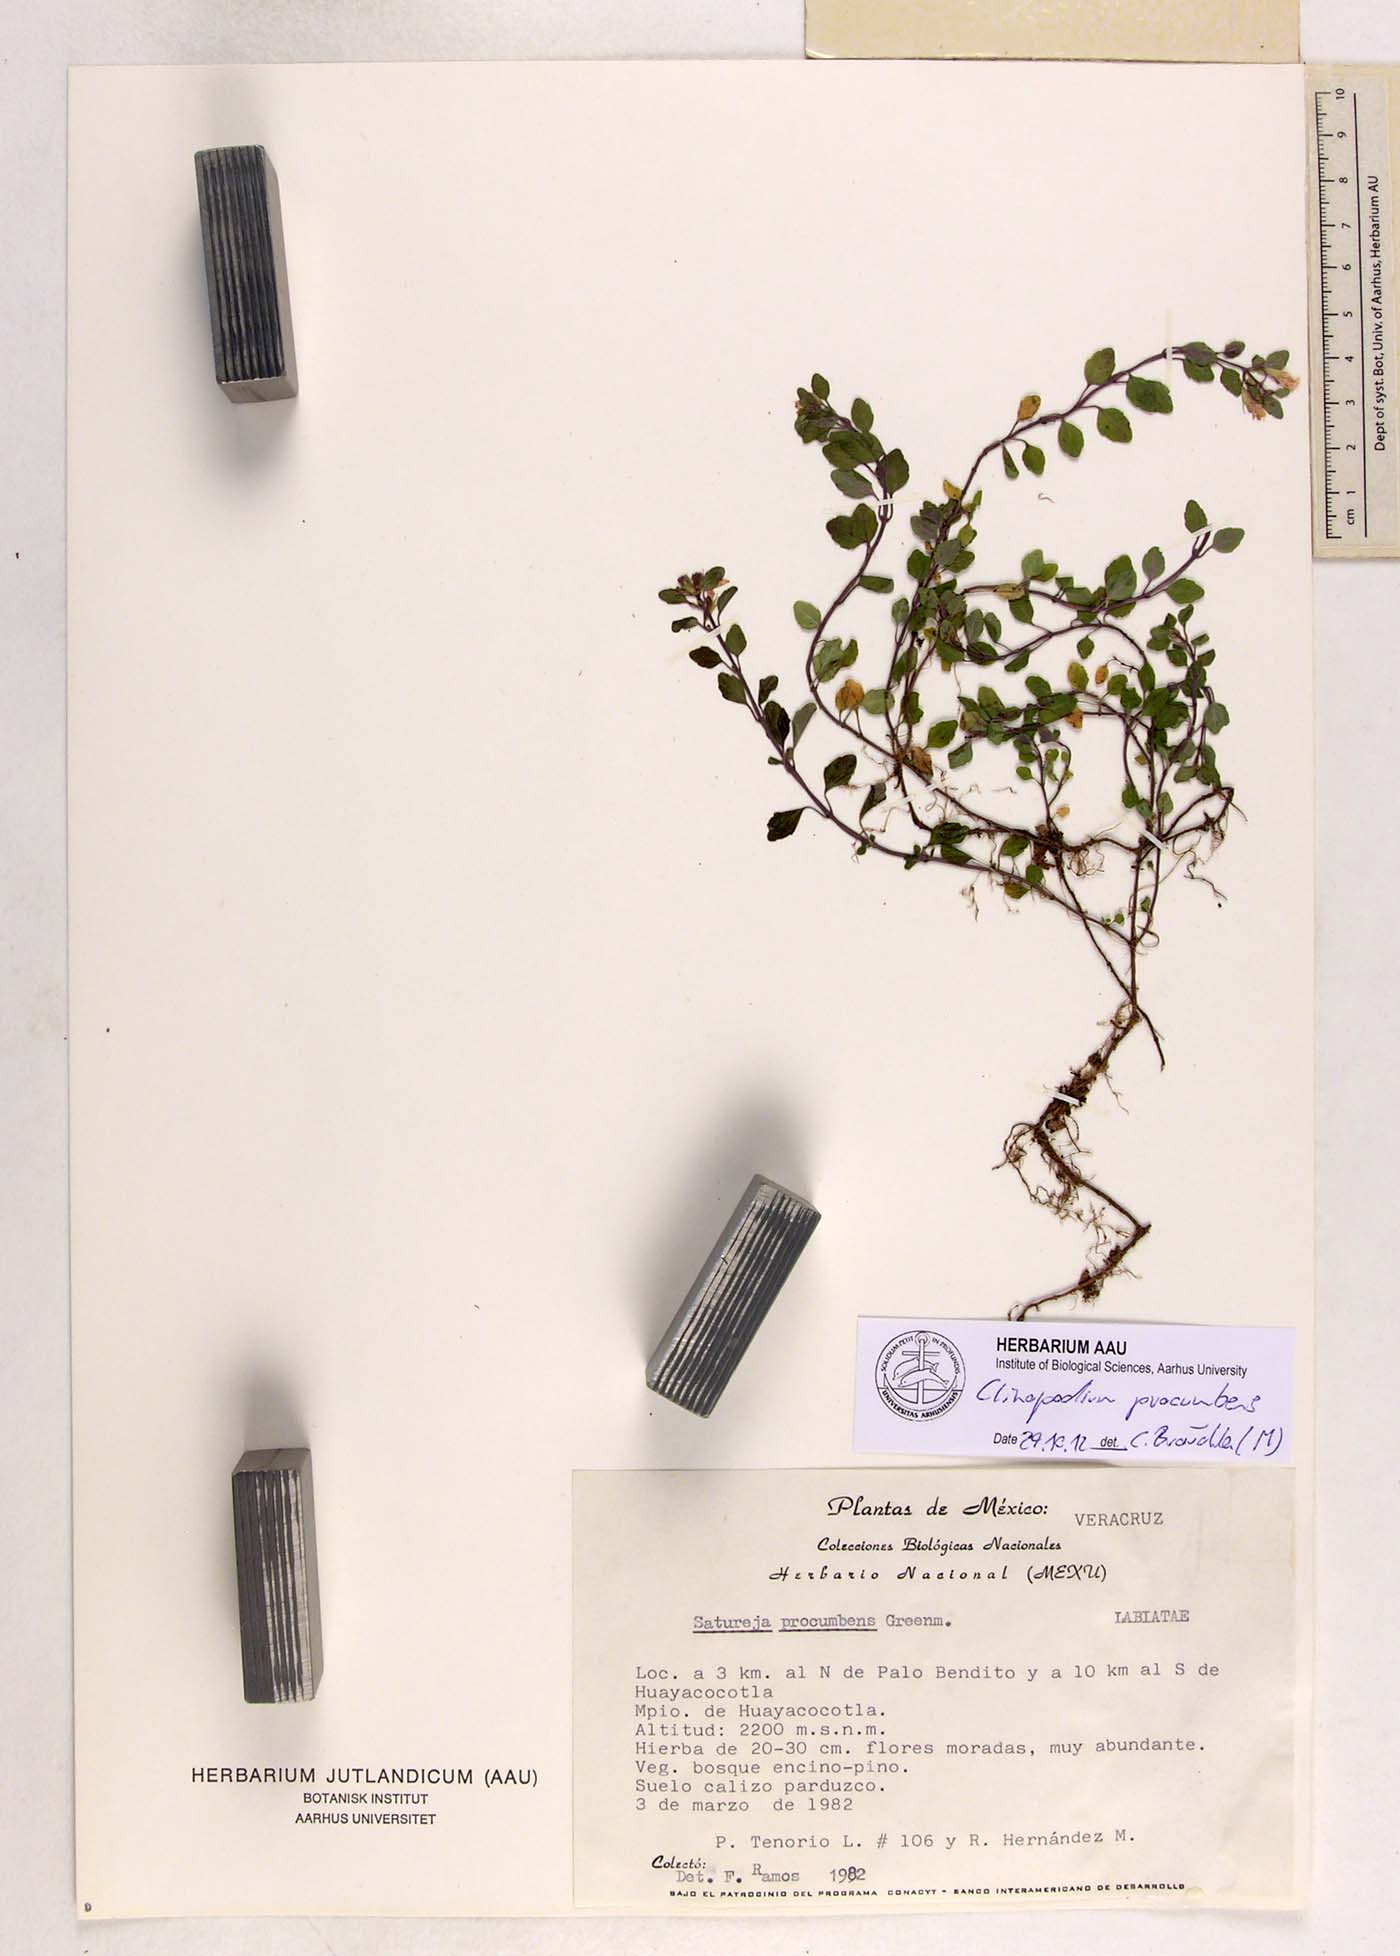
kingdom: Plantae
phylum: Tracheophyta
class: Magnoliopsida
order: Lamiales
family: Lamiaceae
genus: Clinopodium
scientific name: Clinopodium procumbens
